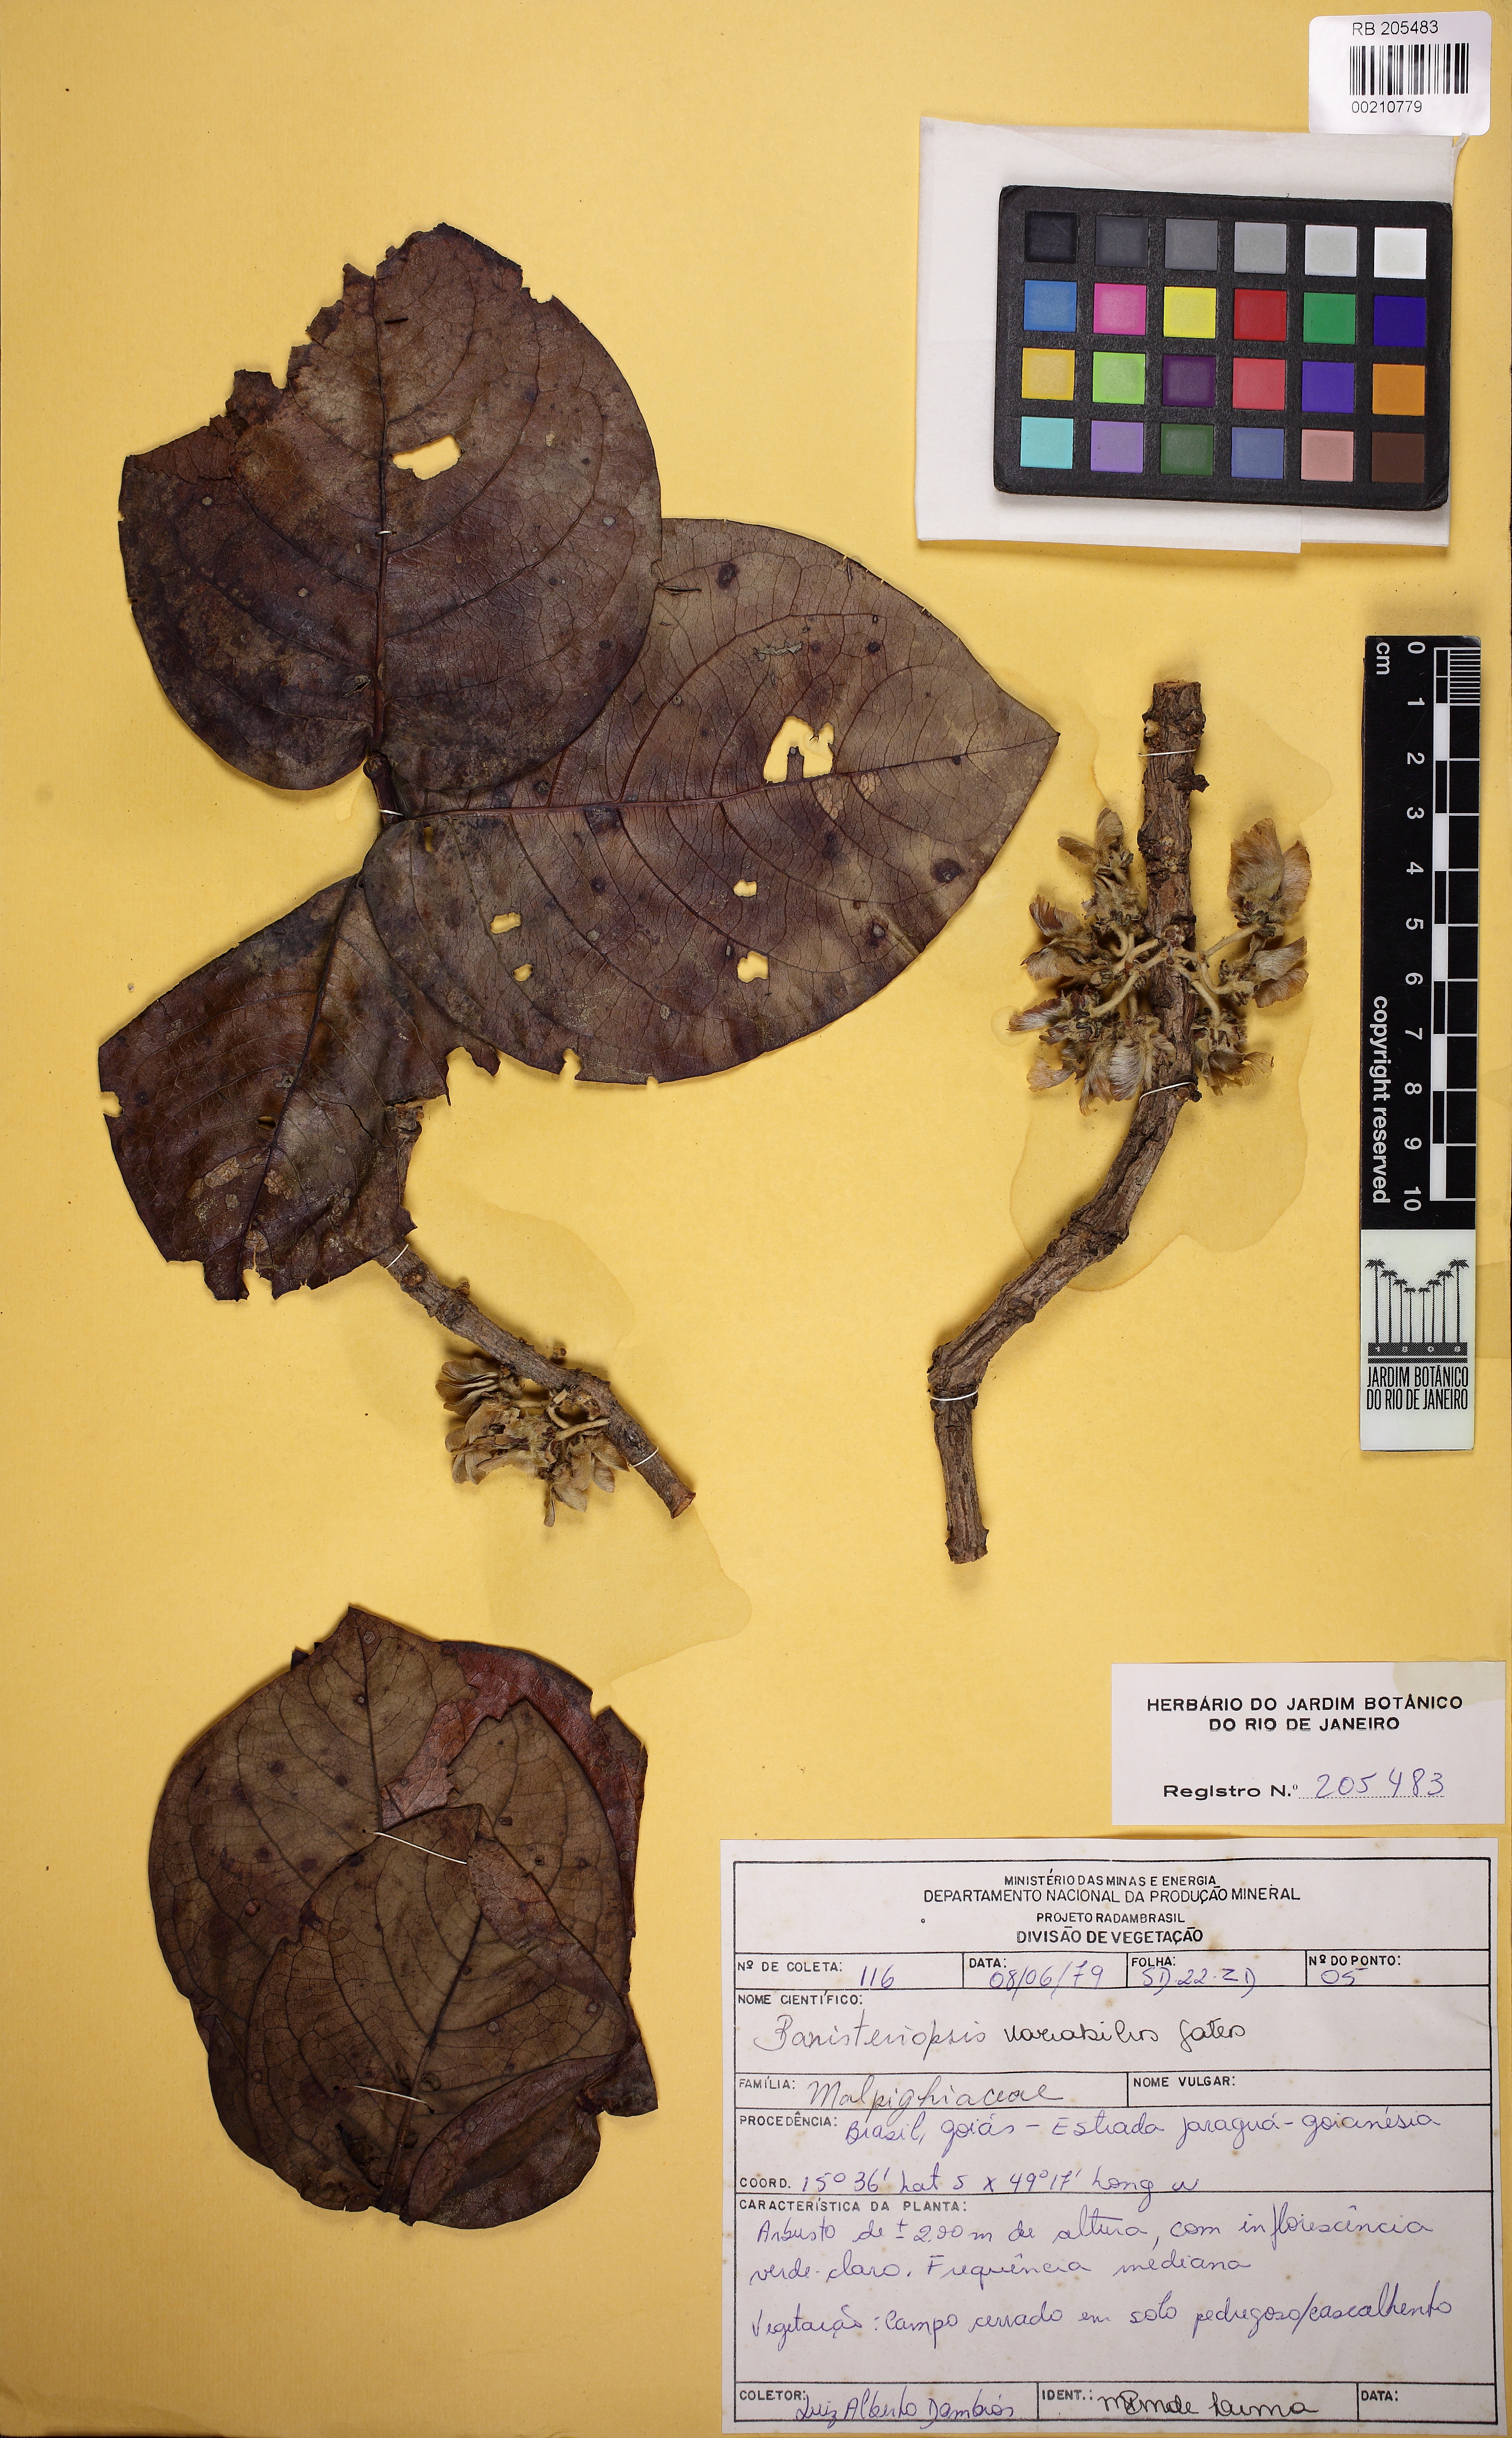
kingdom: Plantae
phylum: Tracheophyta
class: Magnoliopsida
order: Malpighiales
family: Malpighiaceae
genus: Banisteriopsis
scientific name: Banisteriopsis latifolia
